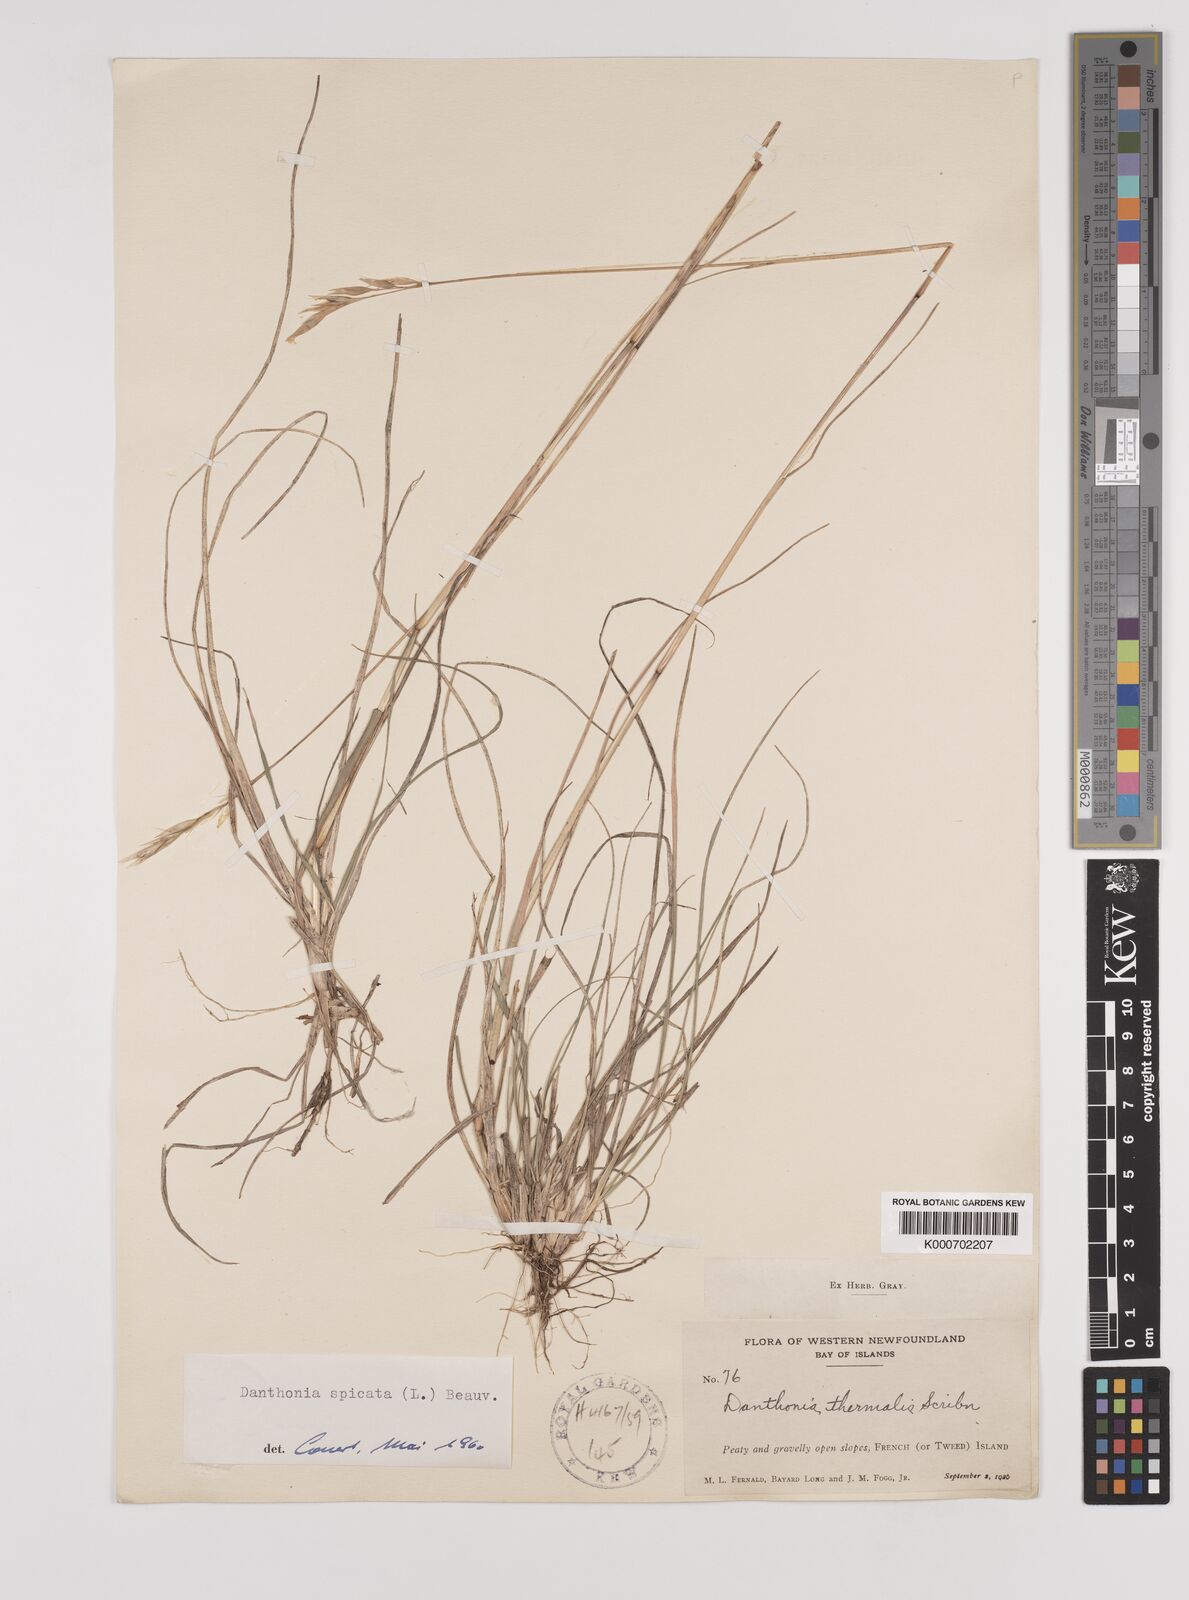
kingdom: Plantae
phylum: Tracheophyta
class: Liliopsida
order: Poales
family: Poaceae
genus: Danthonia
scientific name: Danthonia spicata
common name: Common wild oatgrass
